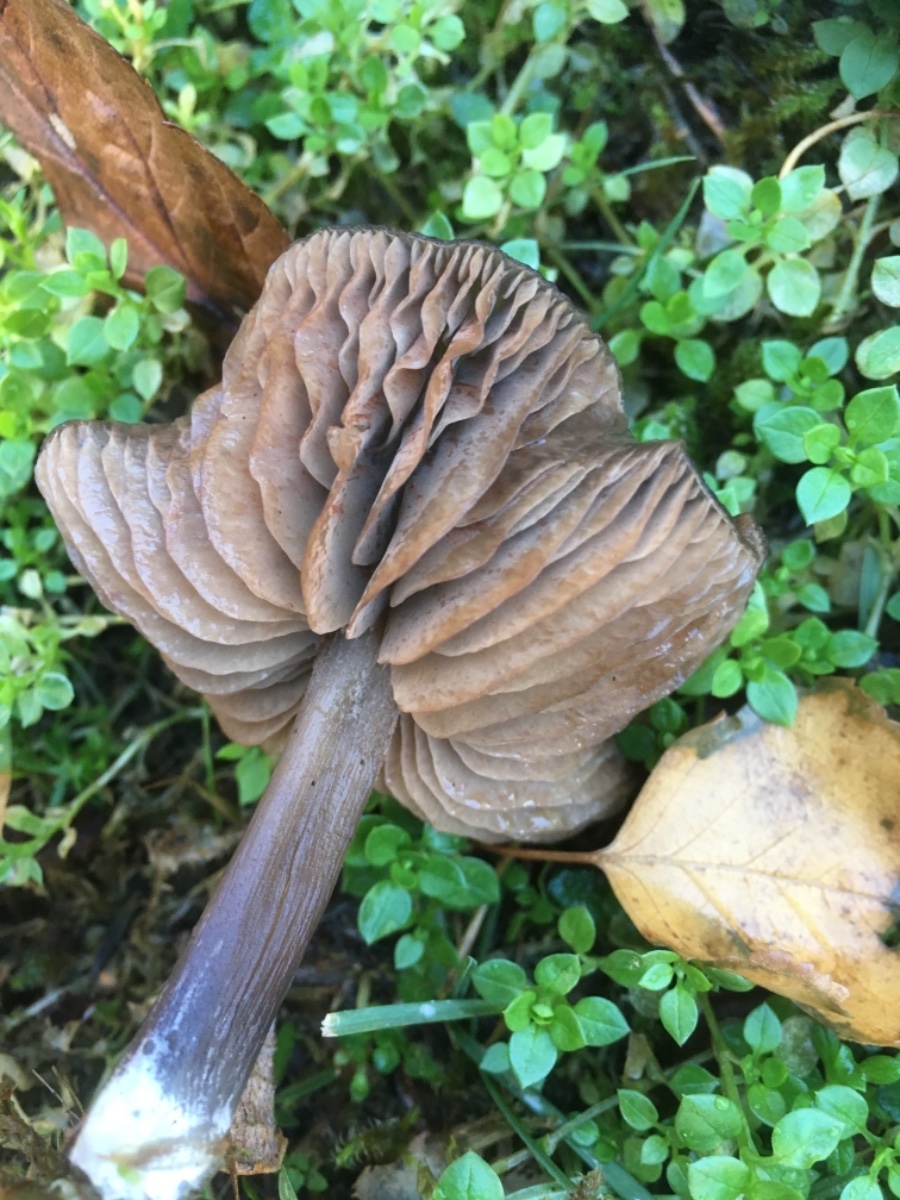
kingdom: Fungi
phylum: Basidiomycota
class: Agaricomycetes
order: Agaricales
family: Entolomataceae
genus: Entoloma
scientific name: Entoloma sericeum
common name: silkeglinsende rødblad
